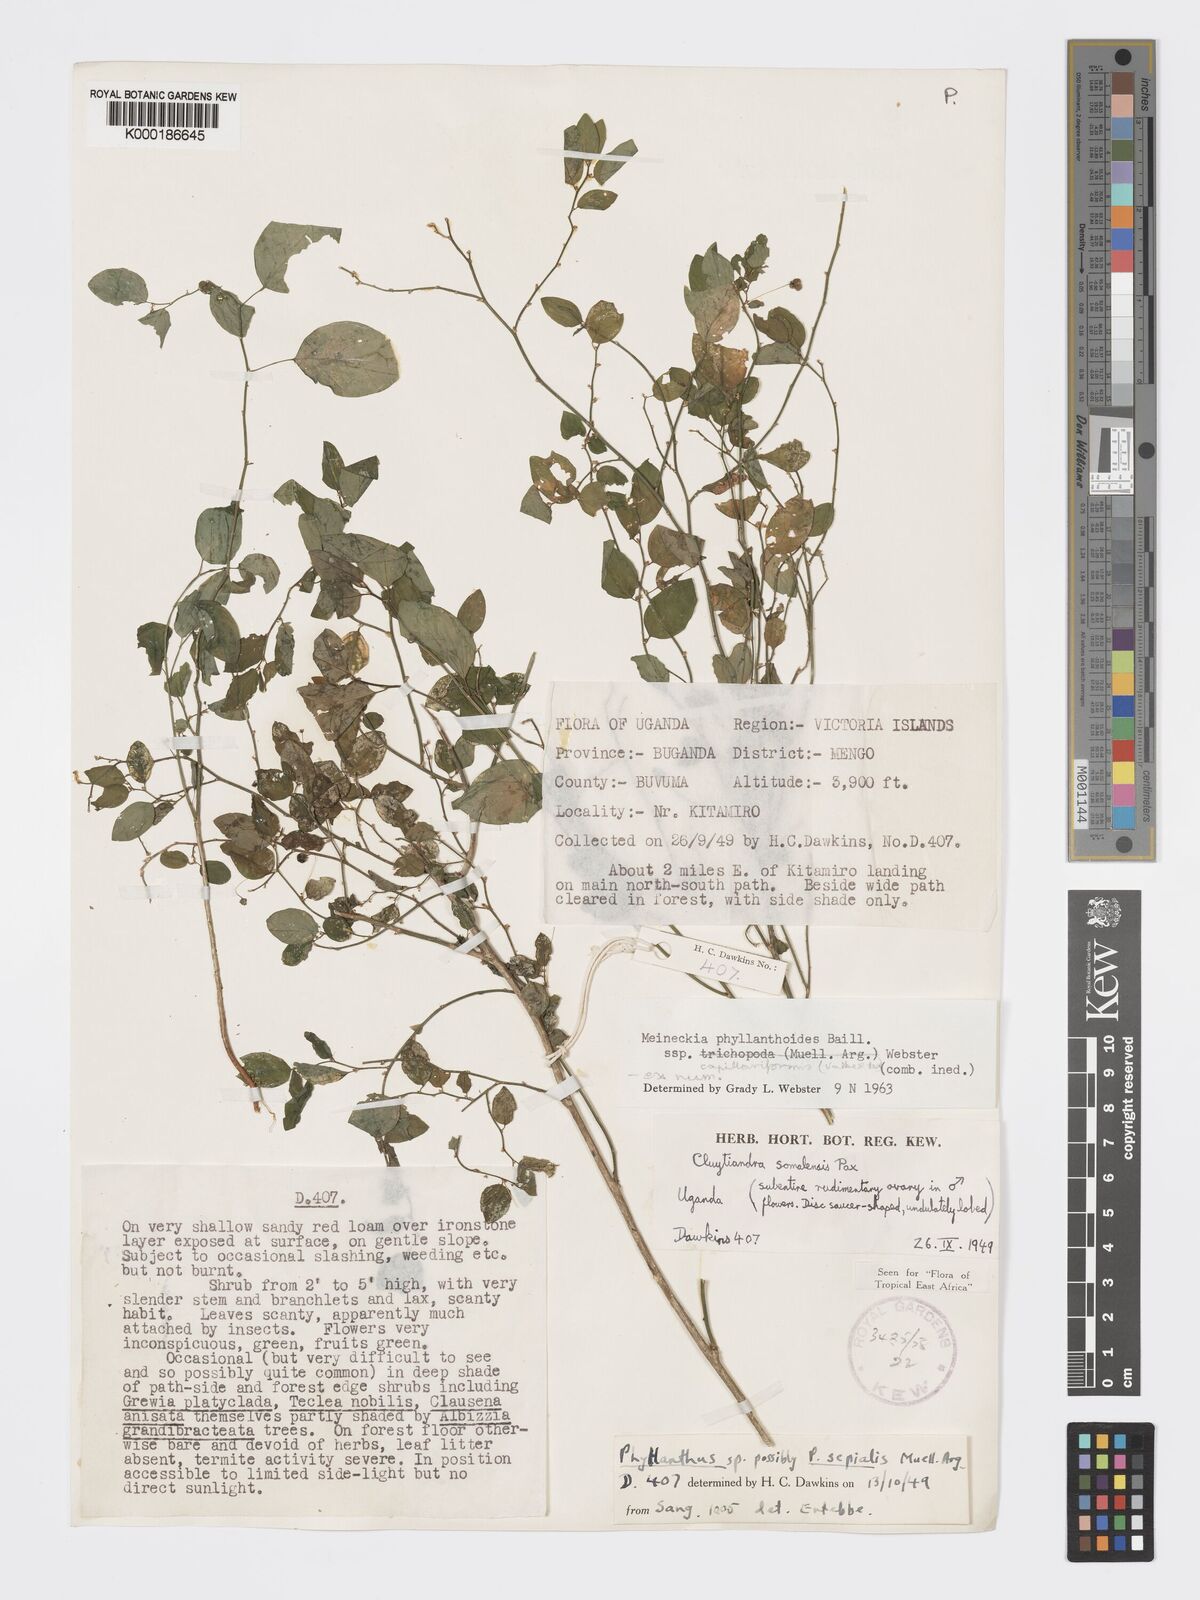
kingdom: Plantae
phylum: Tracheophyta
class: Magnoliopsida
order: Malpighiales
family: Phyllanthaceae
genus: Meineckia
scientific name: Meineckia phyllanthoides
